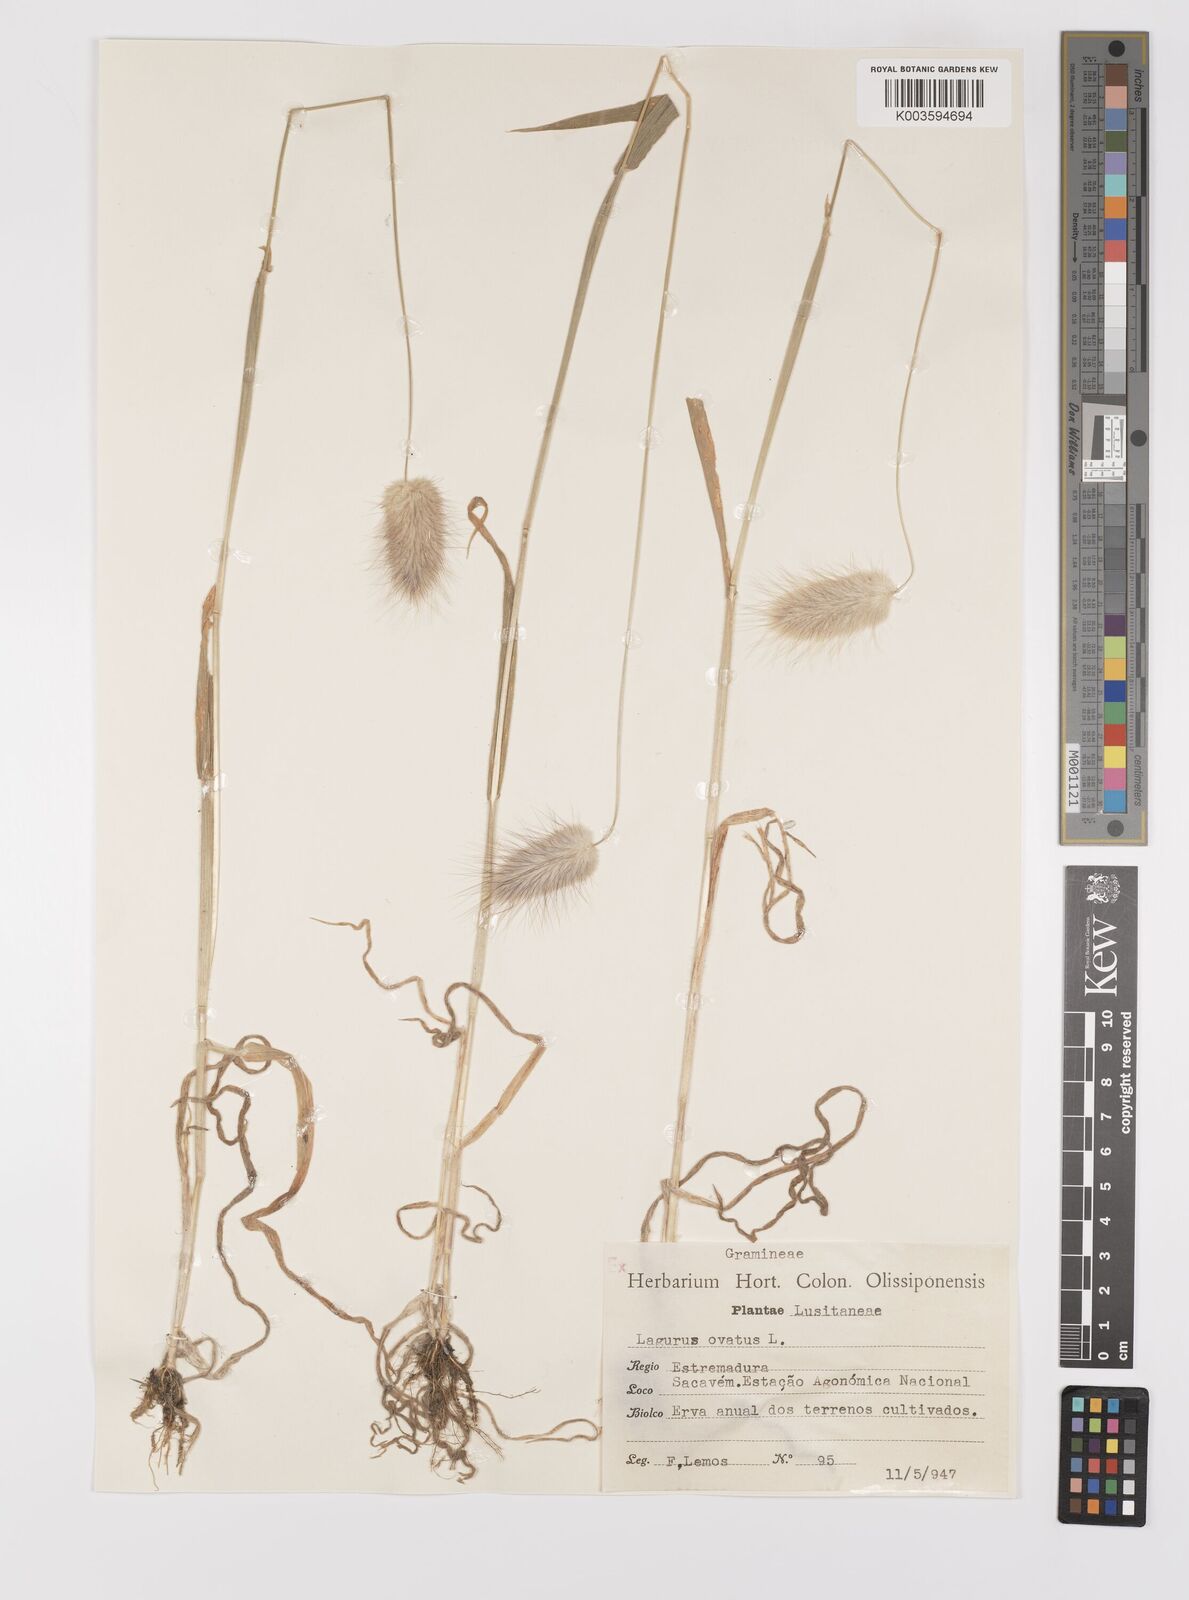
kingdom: Plantae
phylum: Tracheophyta
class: Liliopsida
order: Poales
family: Poaceae
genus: Lagurus
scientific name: Lagurus ovatus
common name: Hare's-tail
